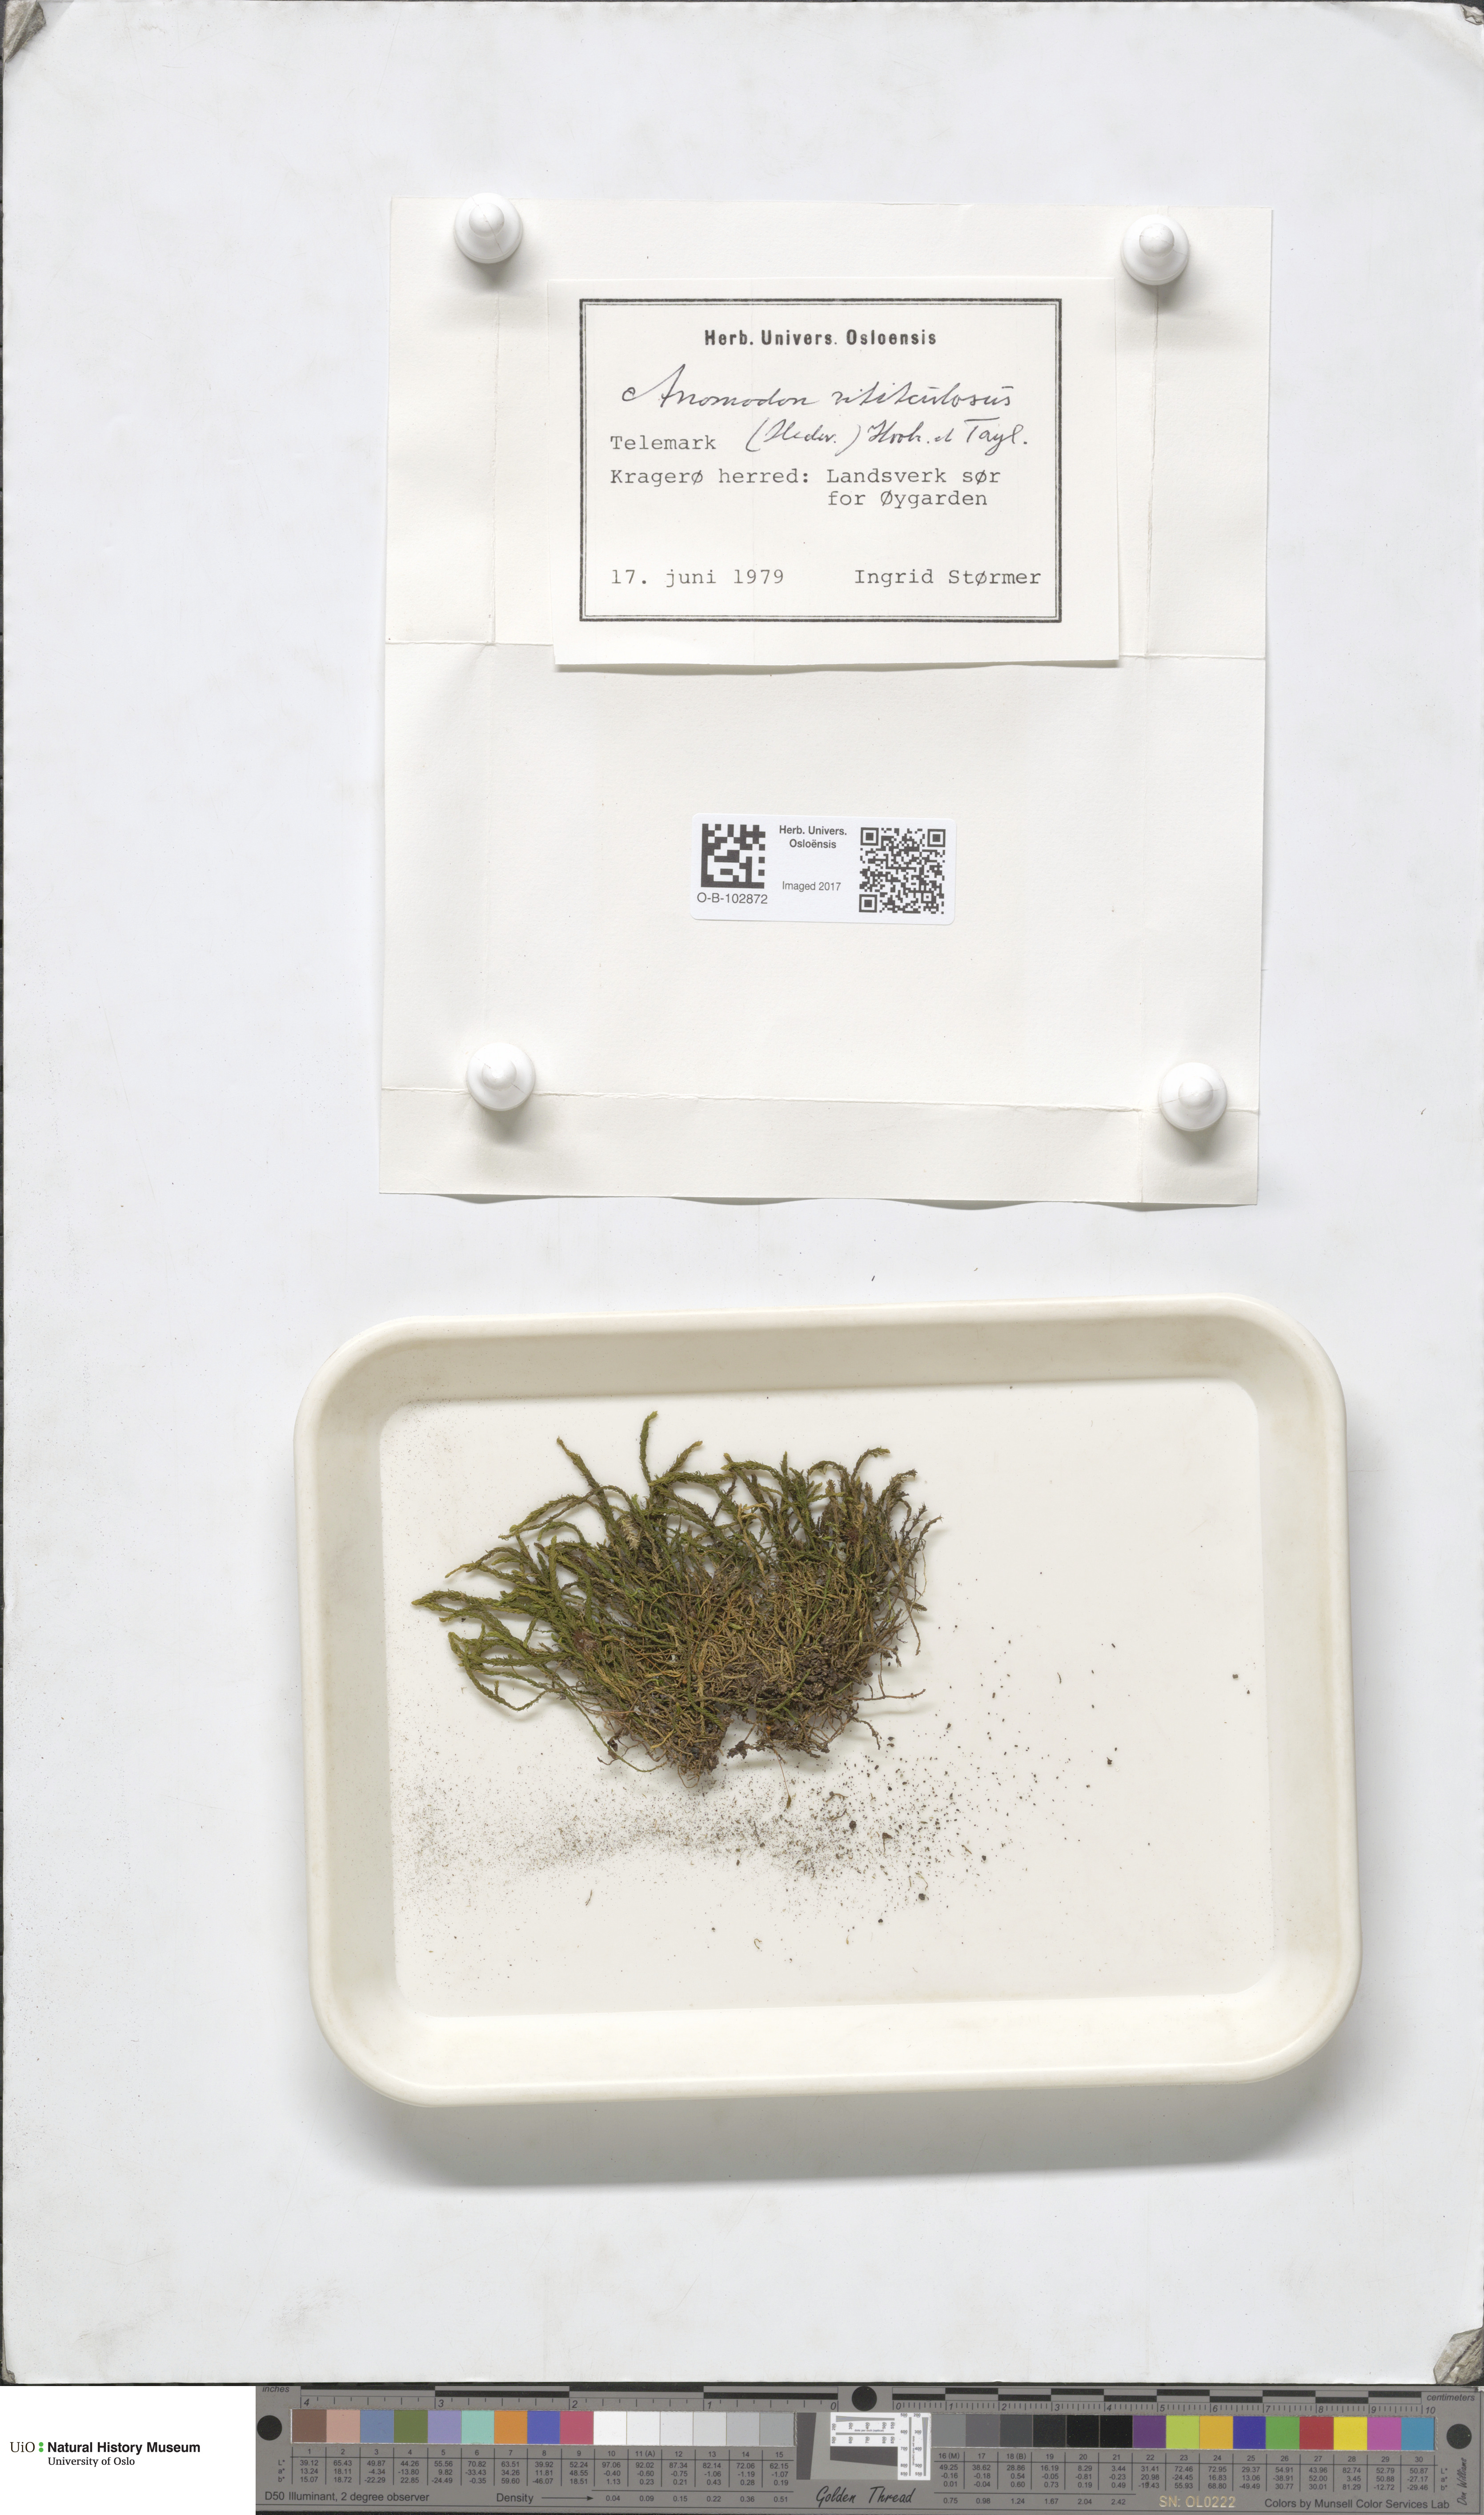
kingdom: Plantae
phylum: Bryophyta
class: Bryopsida
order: Hypnales
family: Anomodontaceae
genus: Anomodon
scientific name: Anomodon viticulosus
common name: Tall anomodon
